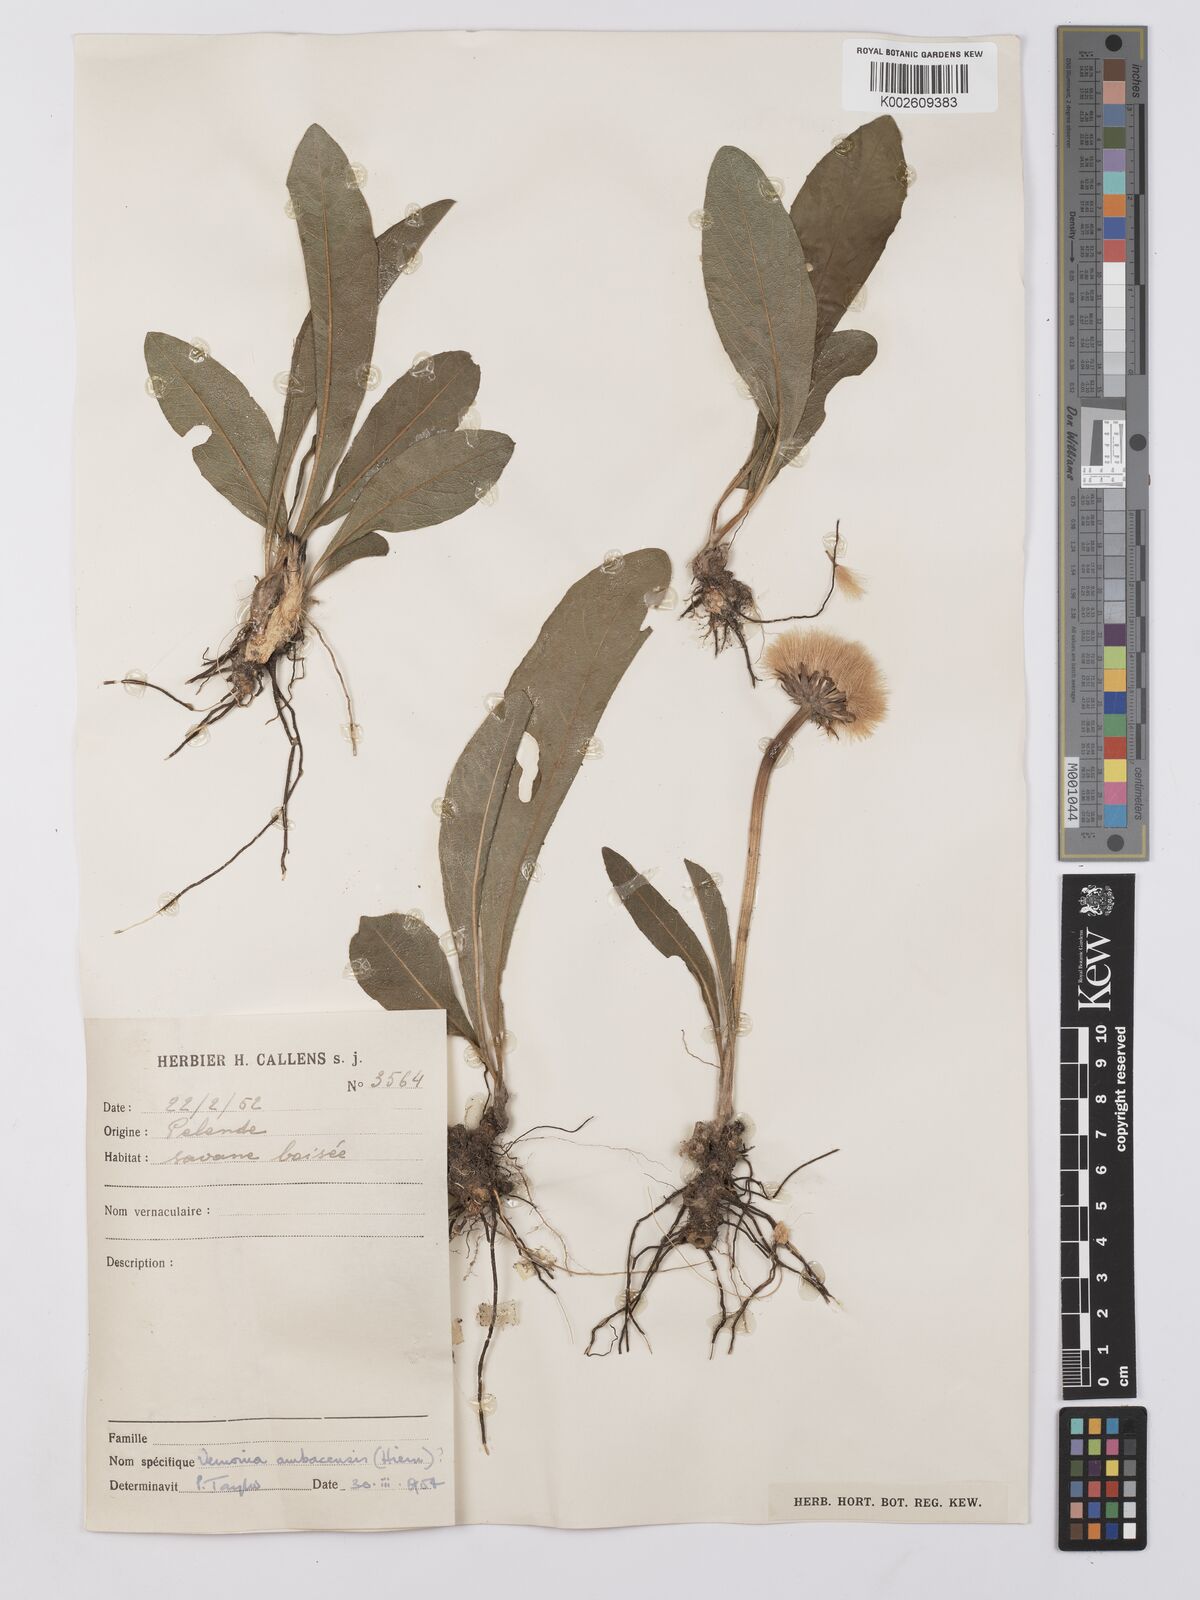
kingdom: Plantae
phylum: Tracheophyta
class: Magnoliopsida
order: Asterales
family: Asteraceae
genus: Vernonia
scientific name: Vernonia
